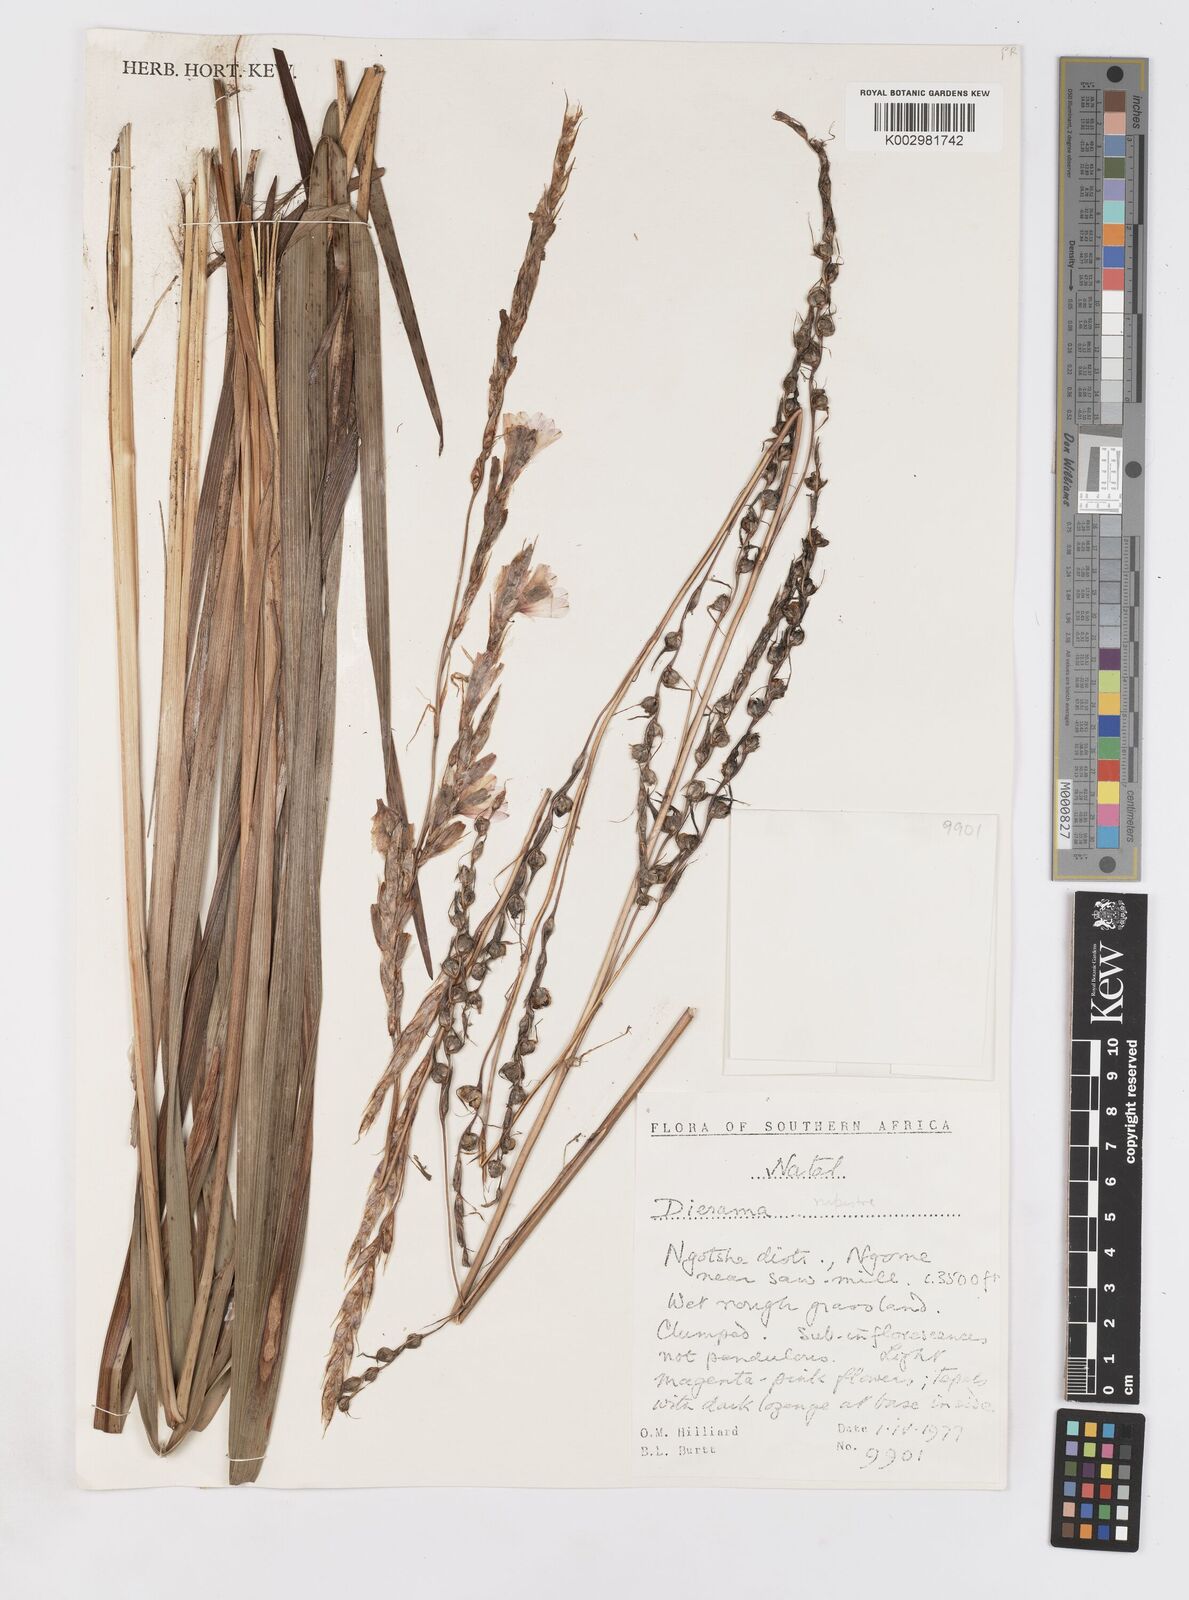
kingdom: Plantae
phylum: Tracheophyta
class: Liliopsida
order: Asparagales
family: Iridaceae
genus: Dierama
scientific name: Dierama insigne
